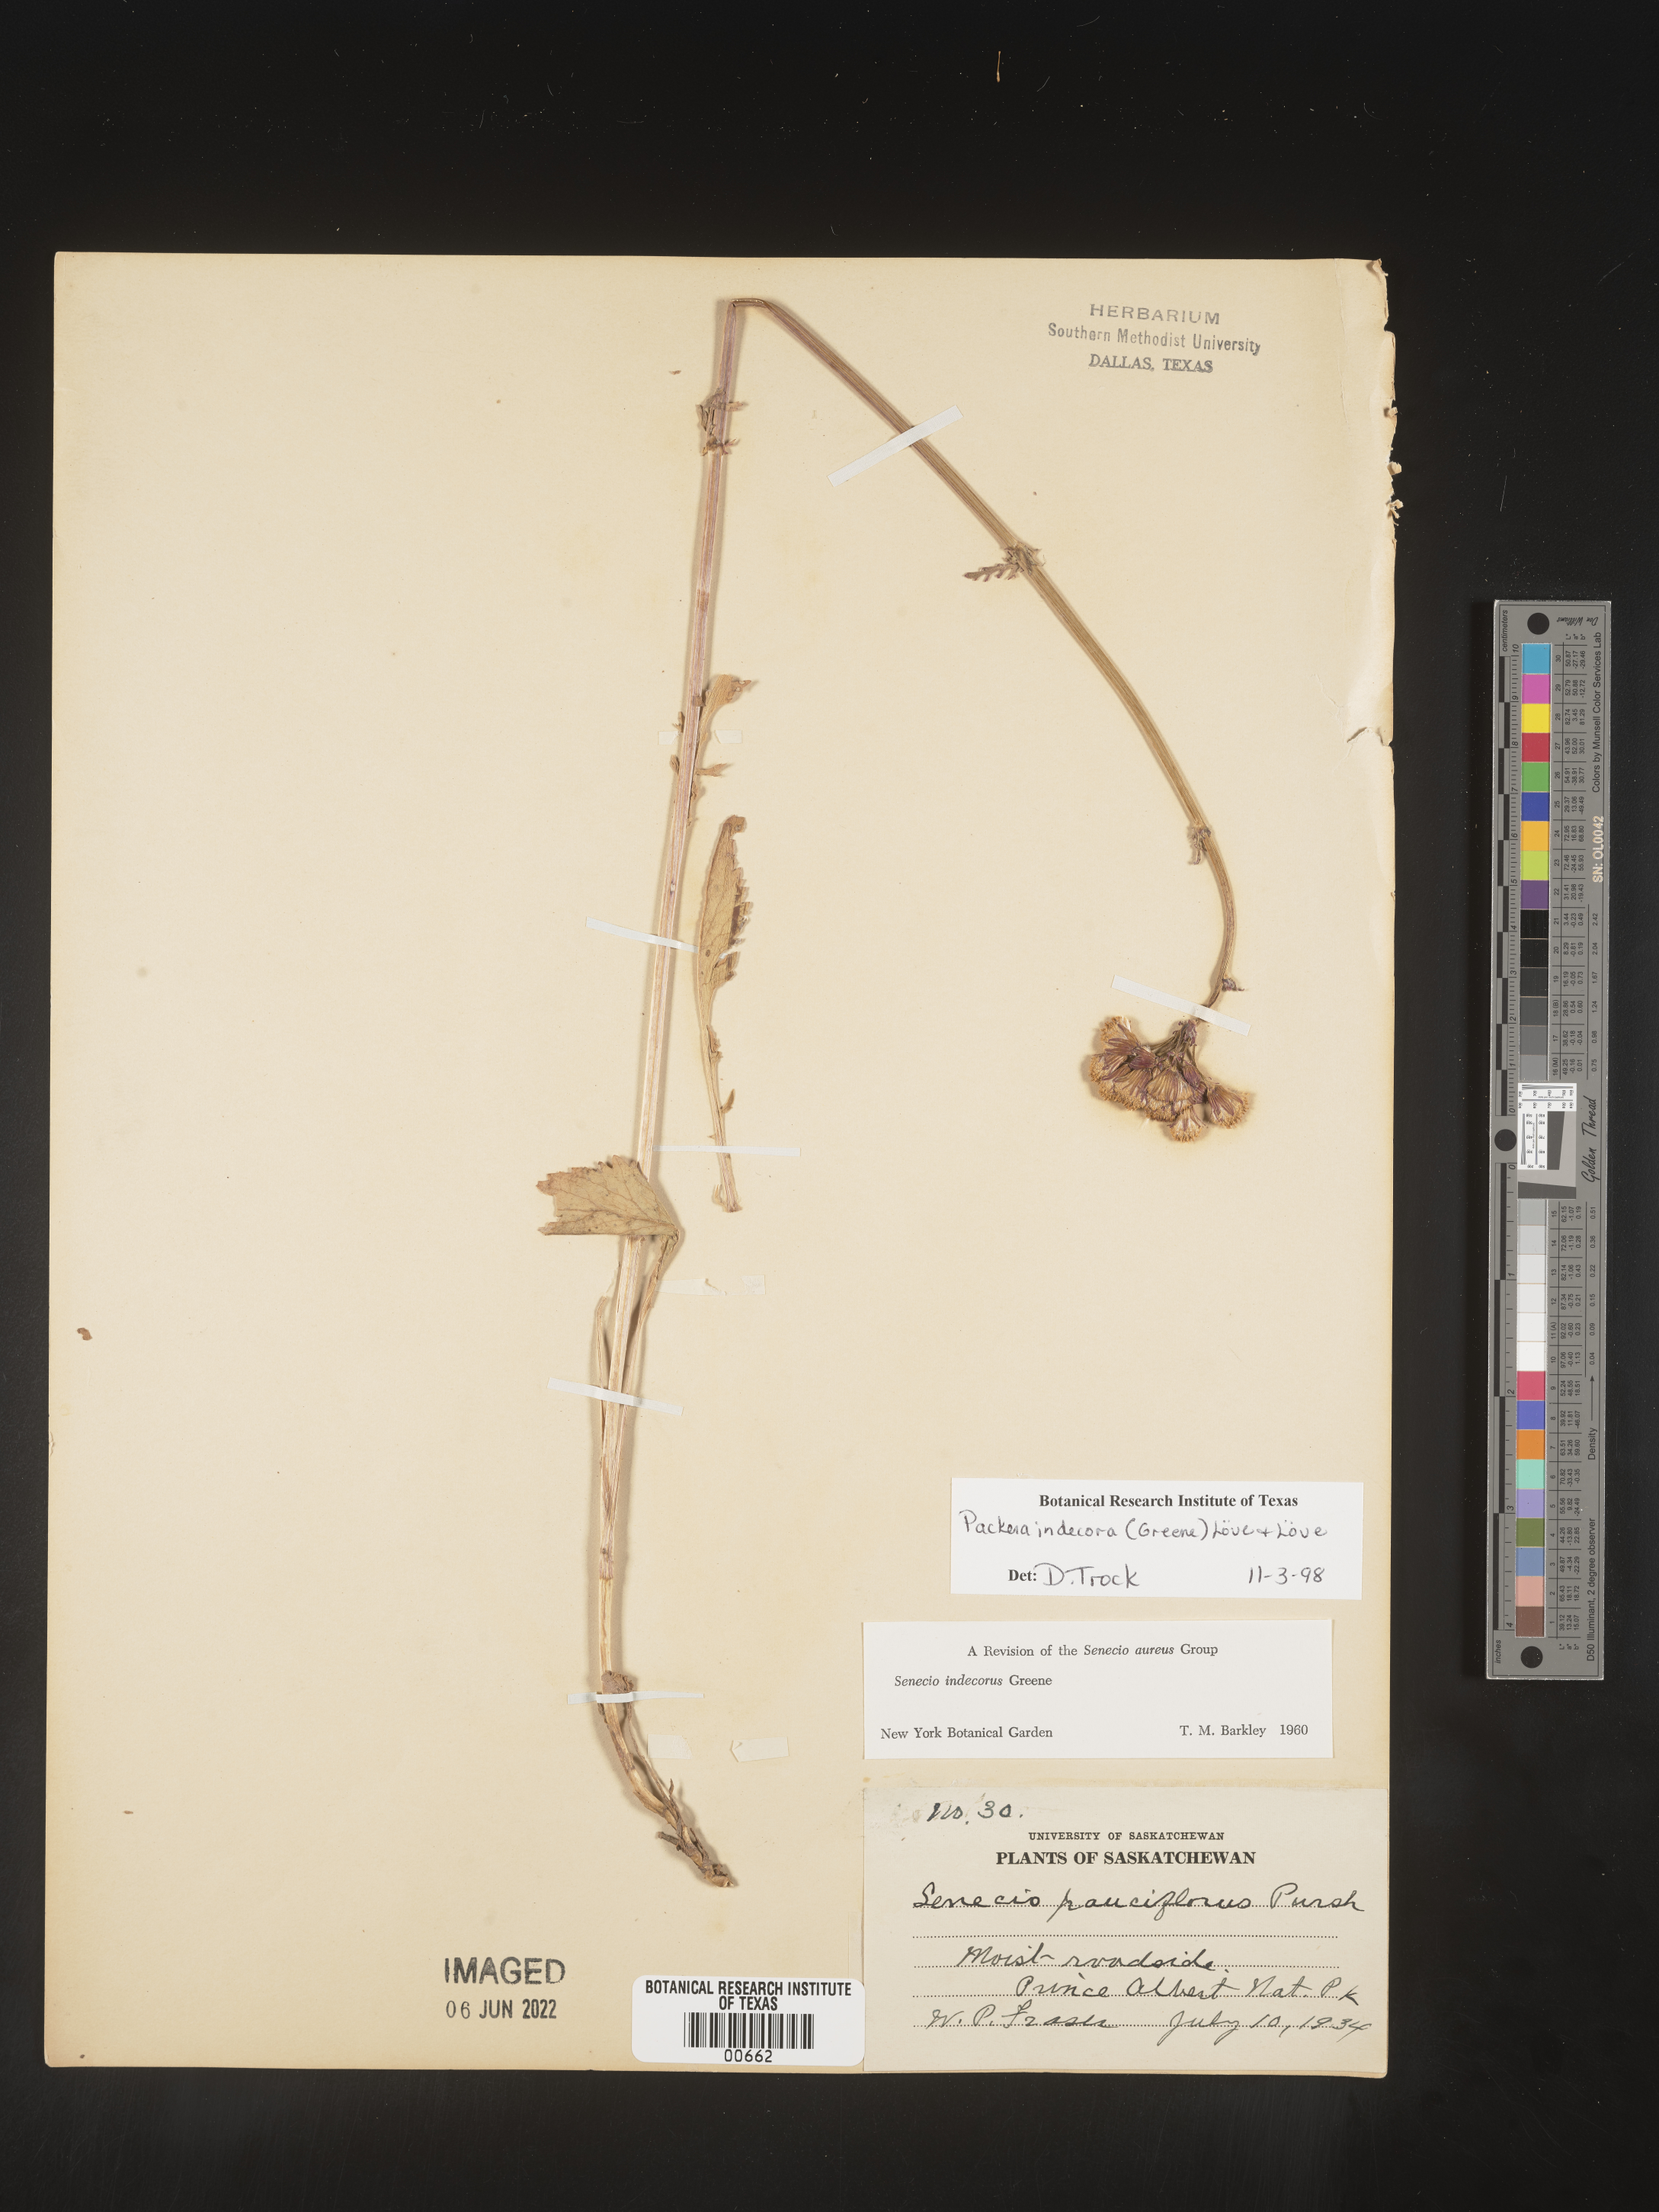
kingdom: Plantae
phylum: Tracheophyta
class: Magnoliopsida
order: Asterales
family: Asteraceae
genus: Packera
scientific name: Packera
